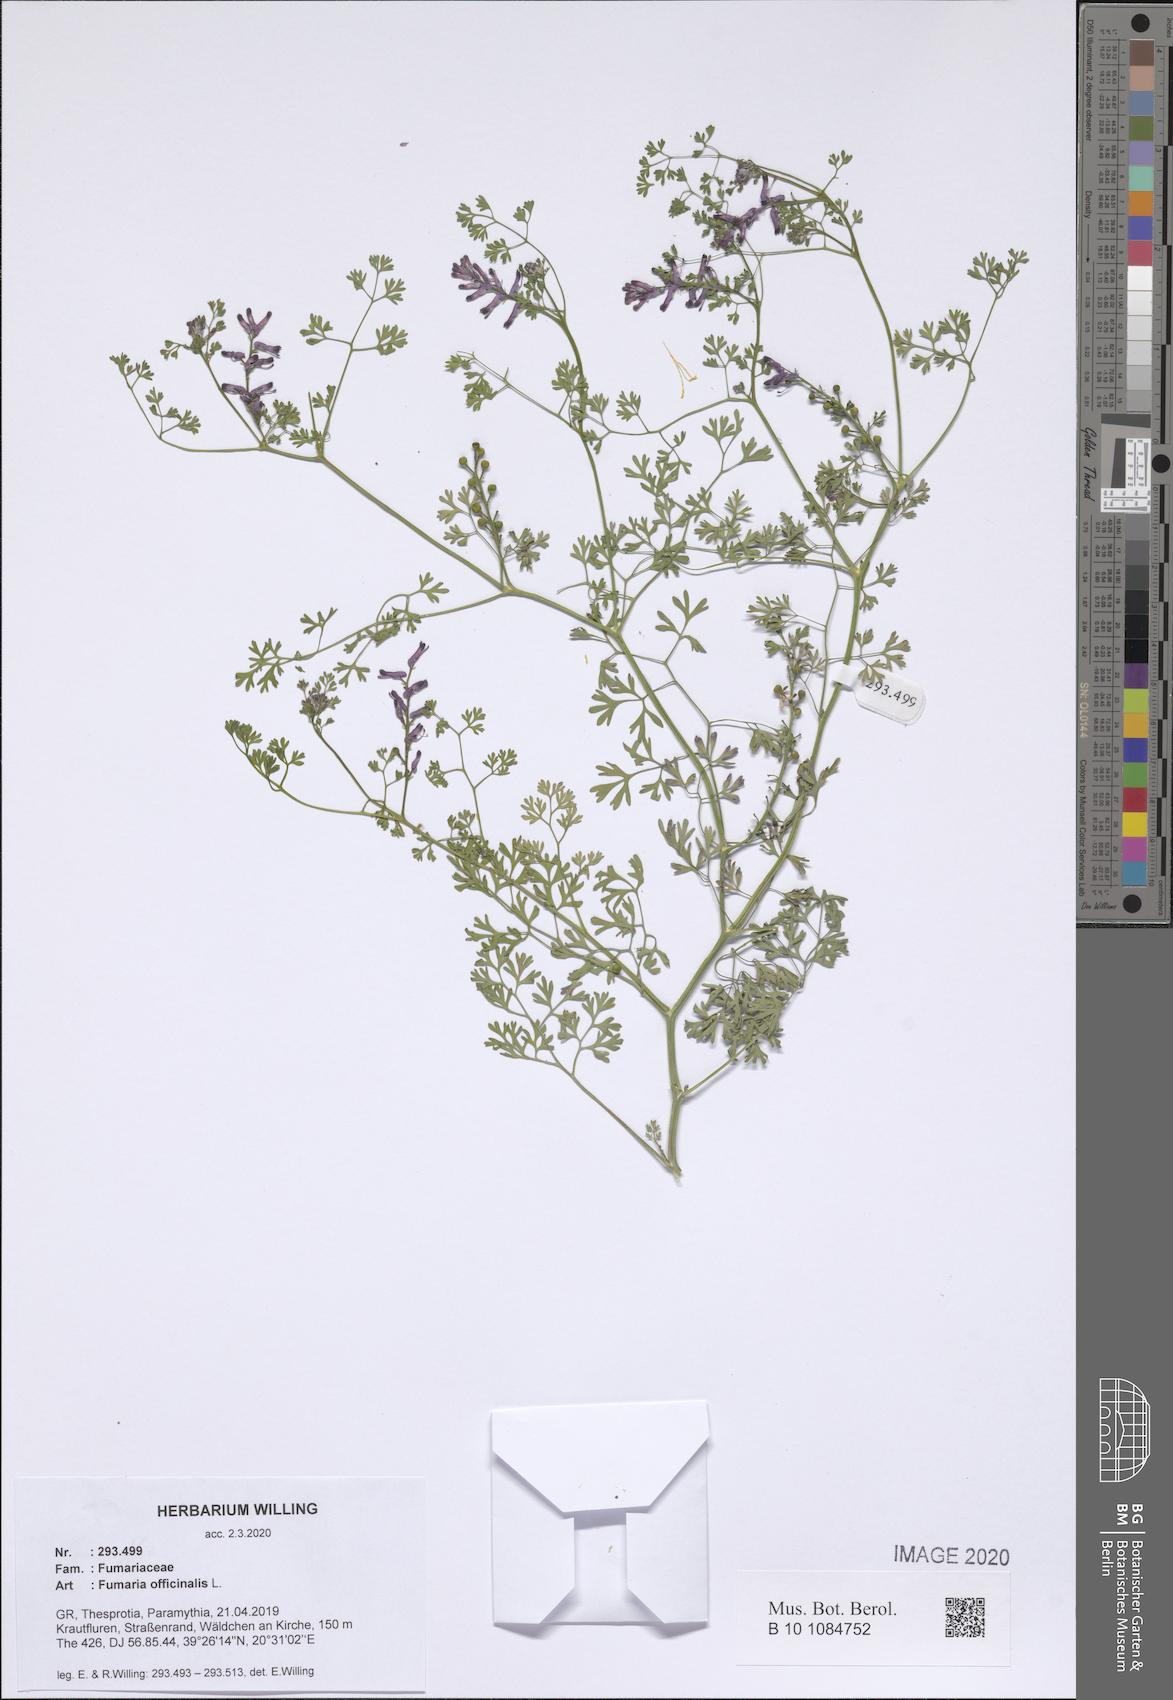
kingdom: Plantae
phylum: Tracheophyta
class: Magnoliopsida
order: Ranunculales
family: Papaveraceae
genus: Fumaria
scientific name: Fumaria officinalis
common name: Common fumitory
